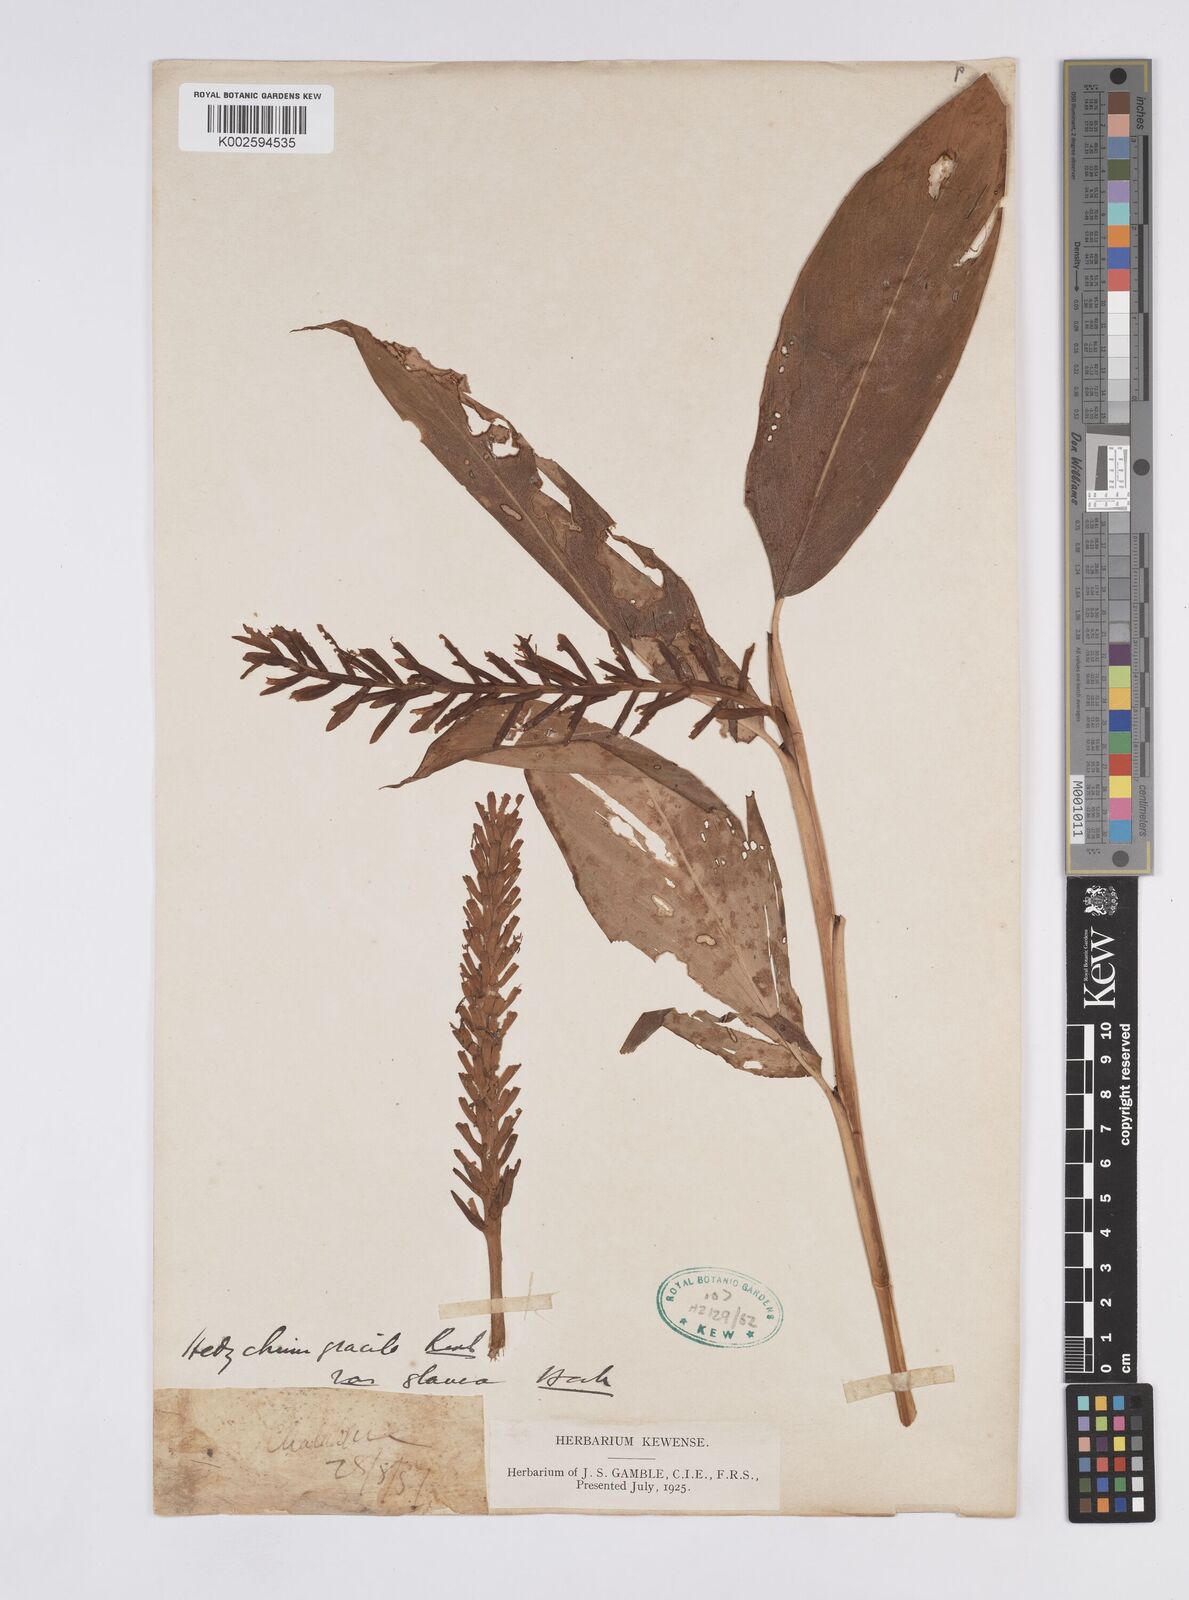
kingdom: Plantae
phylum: Tracheophyta
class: Liliopsida
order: Zingiberales
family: Zingiberaceae
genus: Hedychium
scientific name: Hedychium glaucum
